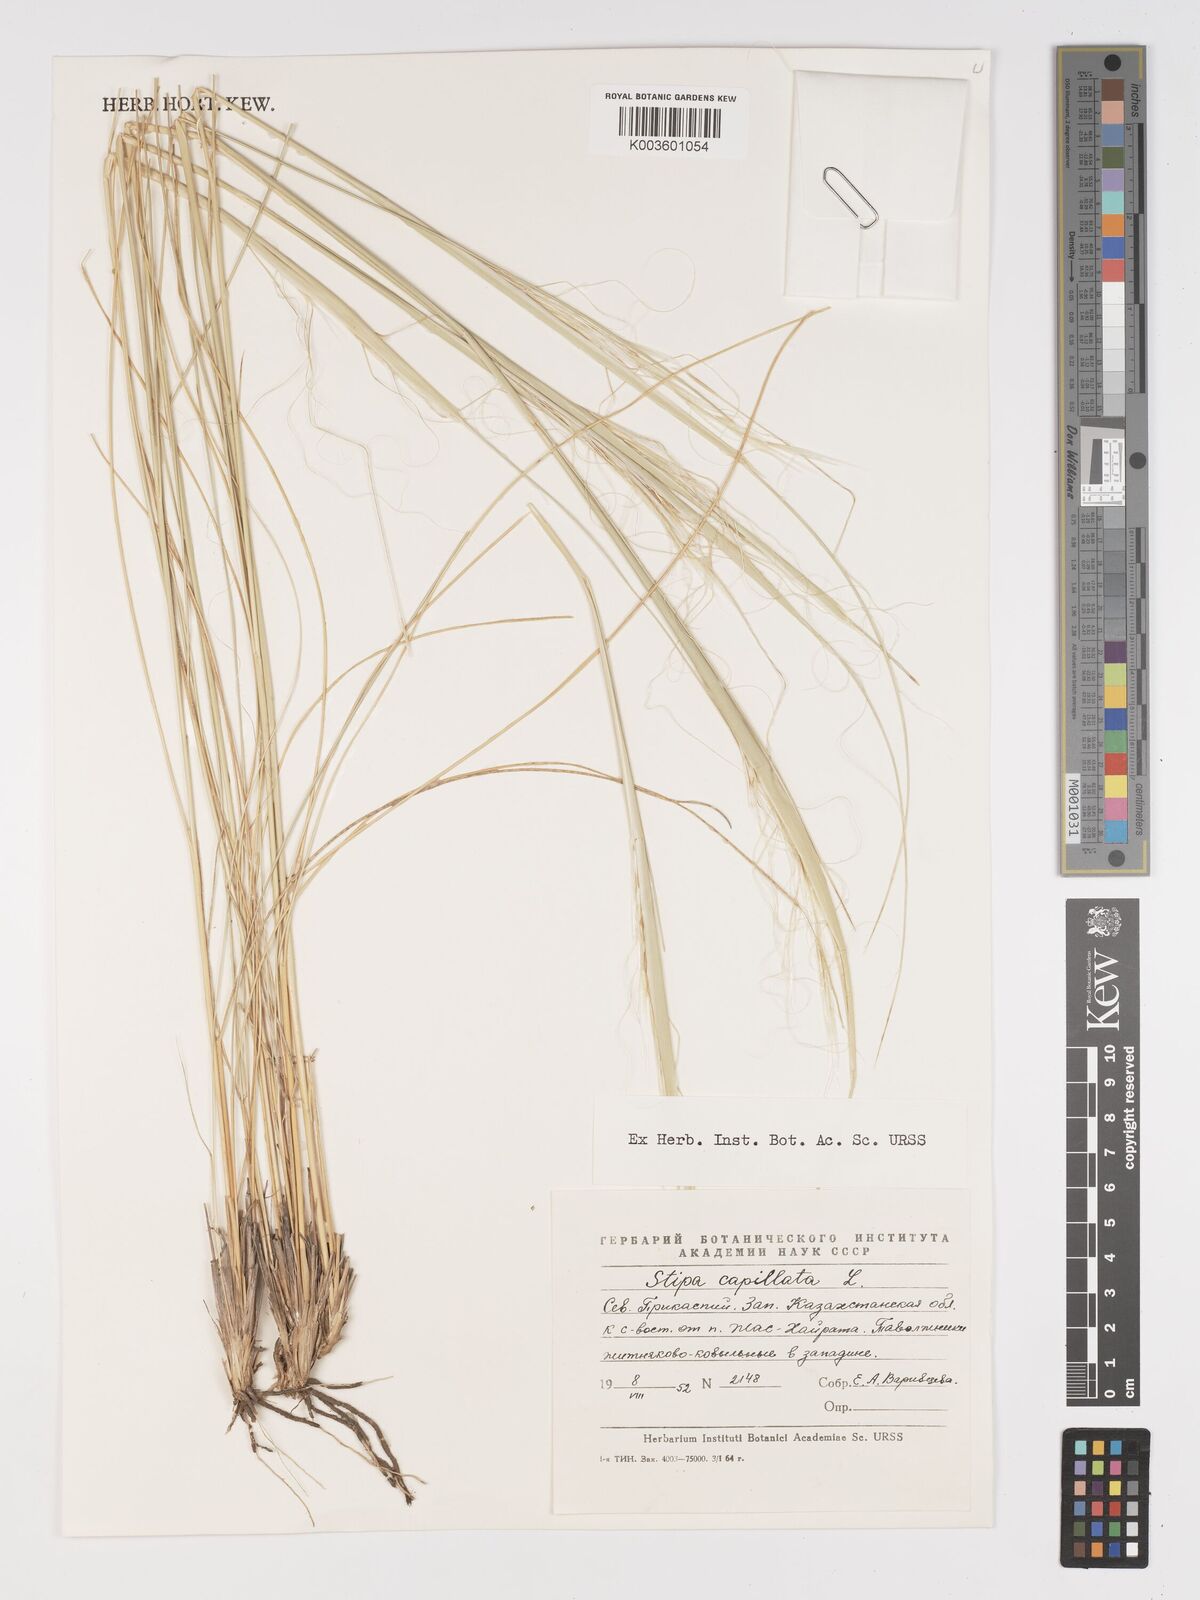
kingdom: Plantae
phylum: Tracheophyta
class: Liliopsida
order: Poales
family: Poaceae
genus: Stipa
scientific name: Stipa capillata
